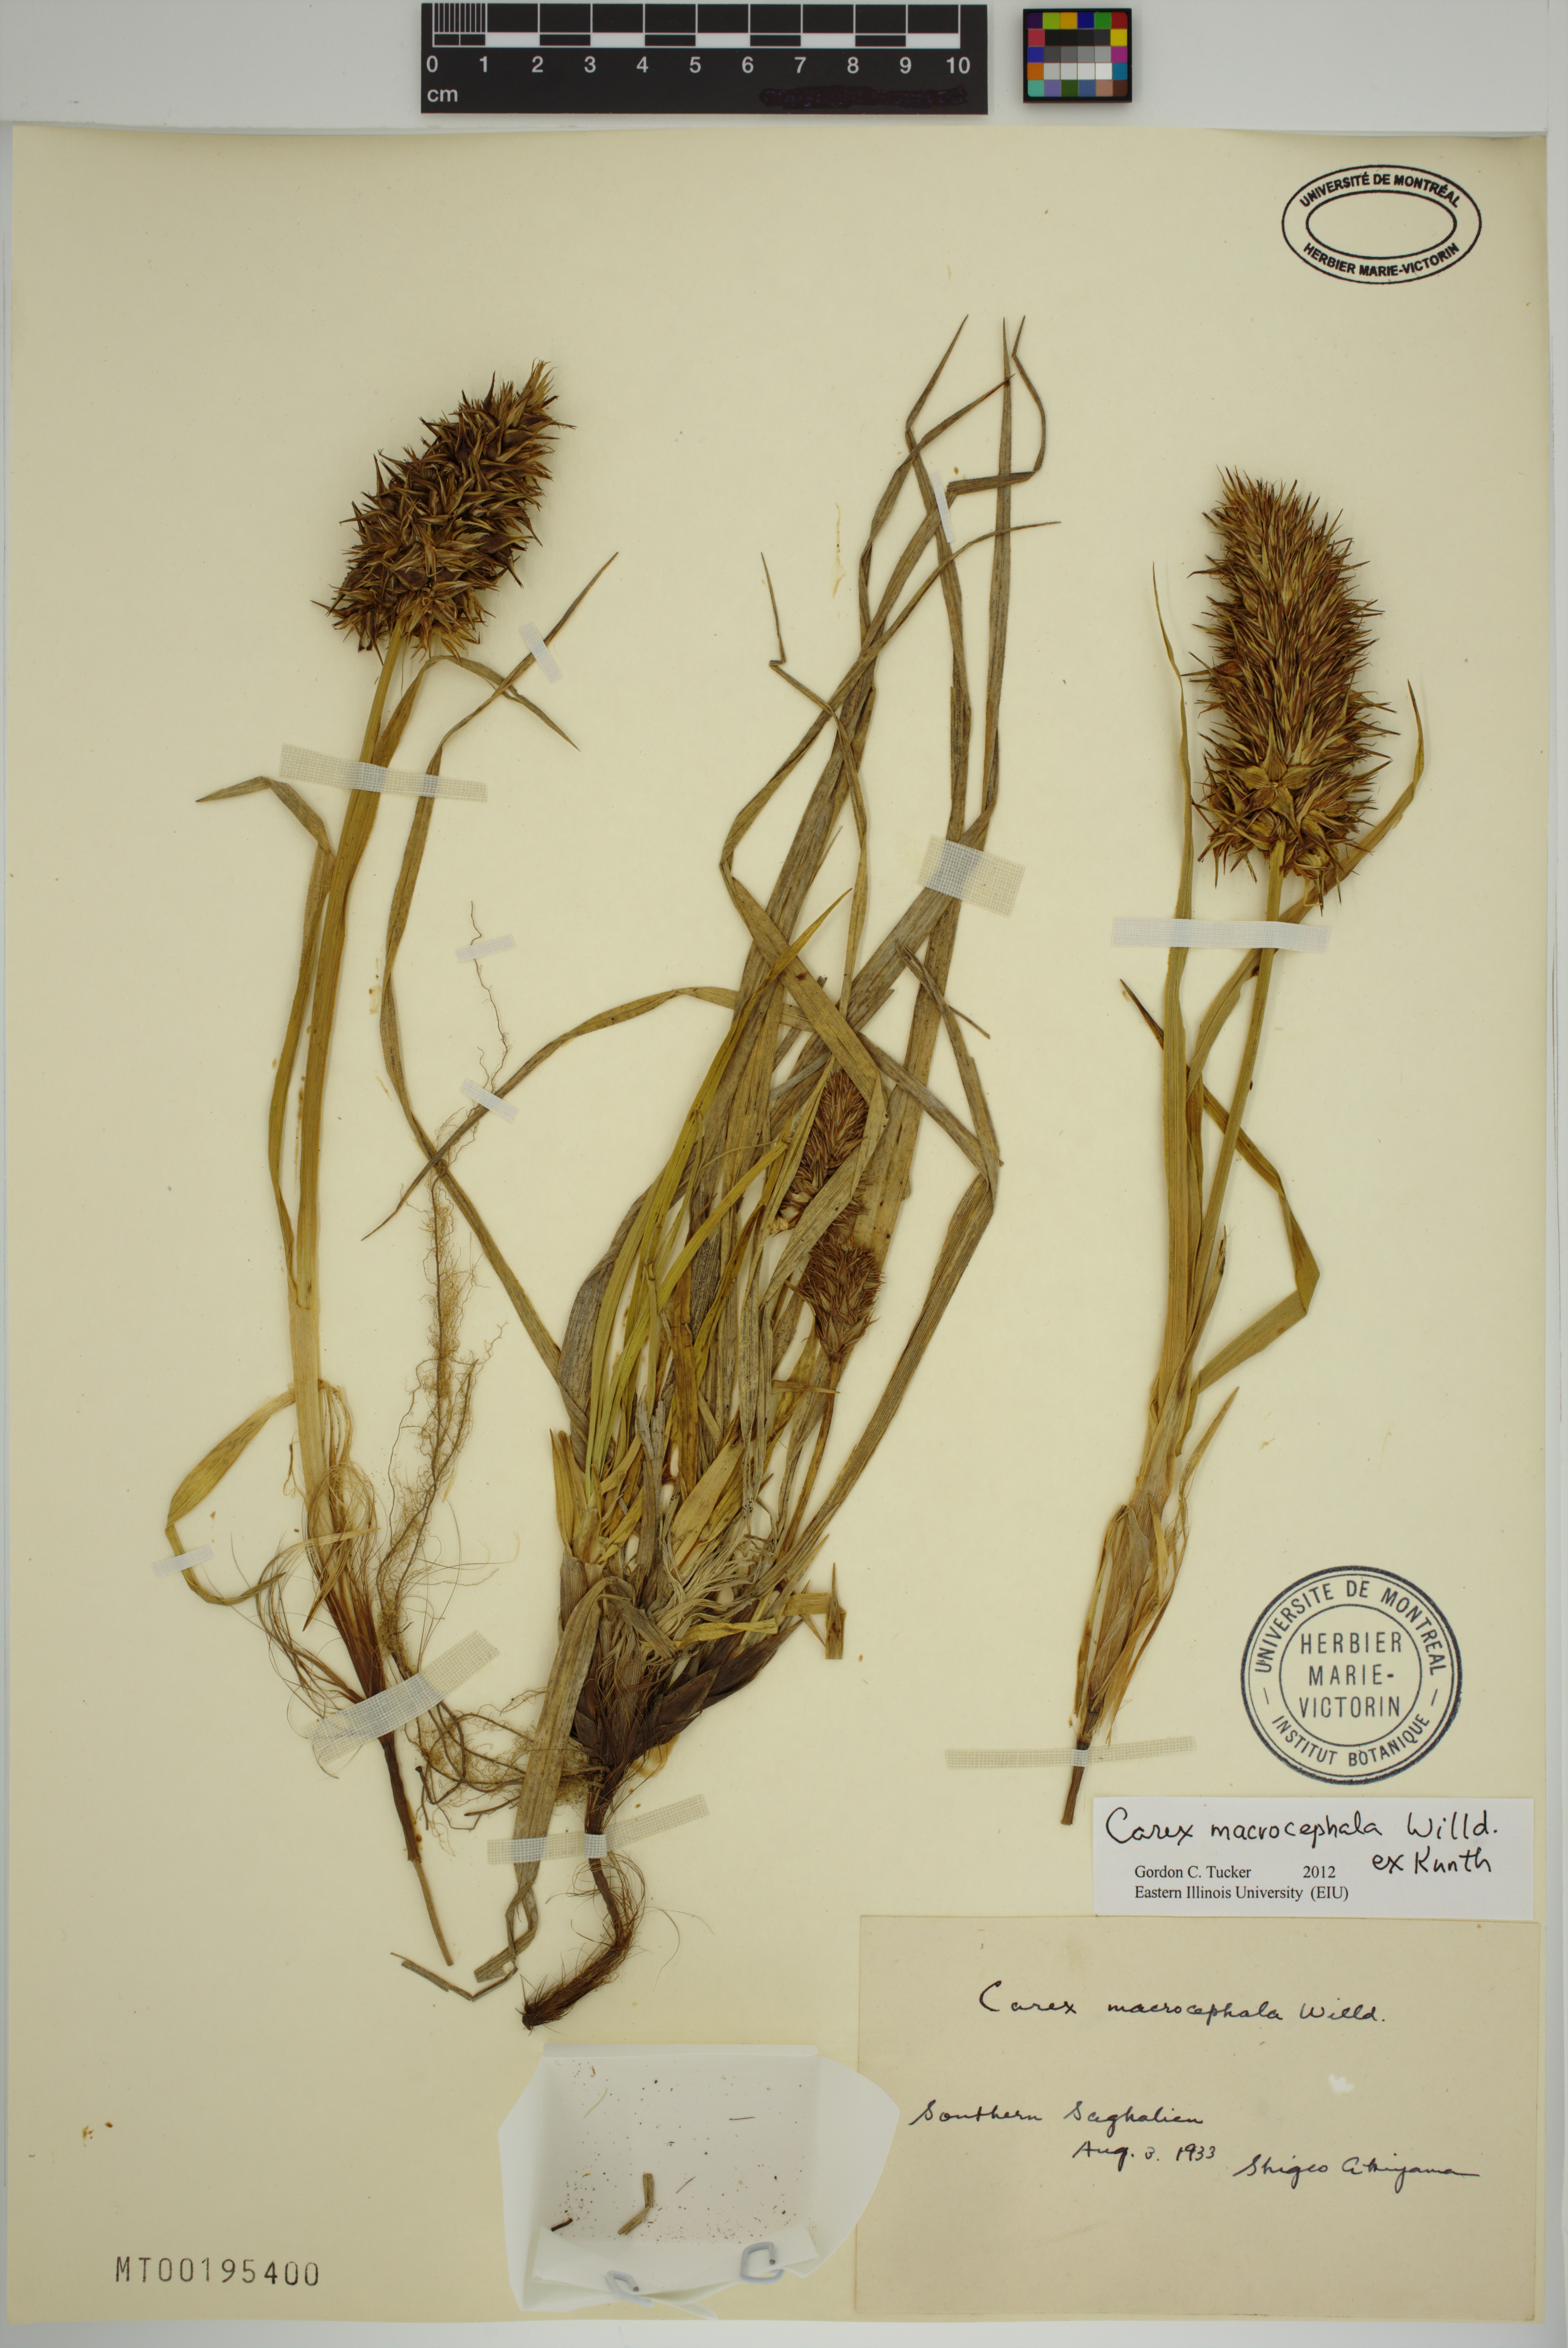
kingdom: Plantae
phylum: Tracheophyta
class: Liliopsida
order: Poales
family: Cyperaceae
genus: Carex
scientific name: Carex macrocephala
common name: Large-head sedge
